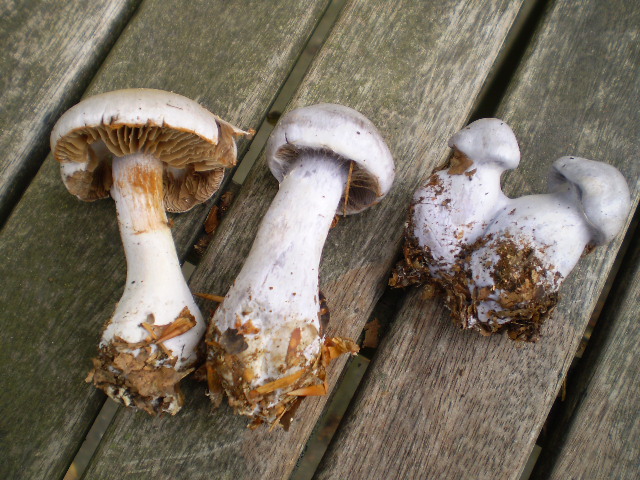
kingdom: Fungi
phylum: Basidiomycota
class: Agaricomycetes
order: Agaricales
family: Cortinariaceae
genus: Cortinarius
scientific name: Cortinarius alboviolaceus
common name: lysviolet slørhat
